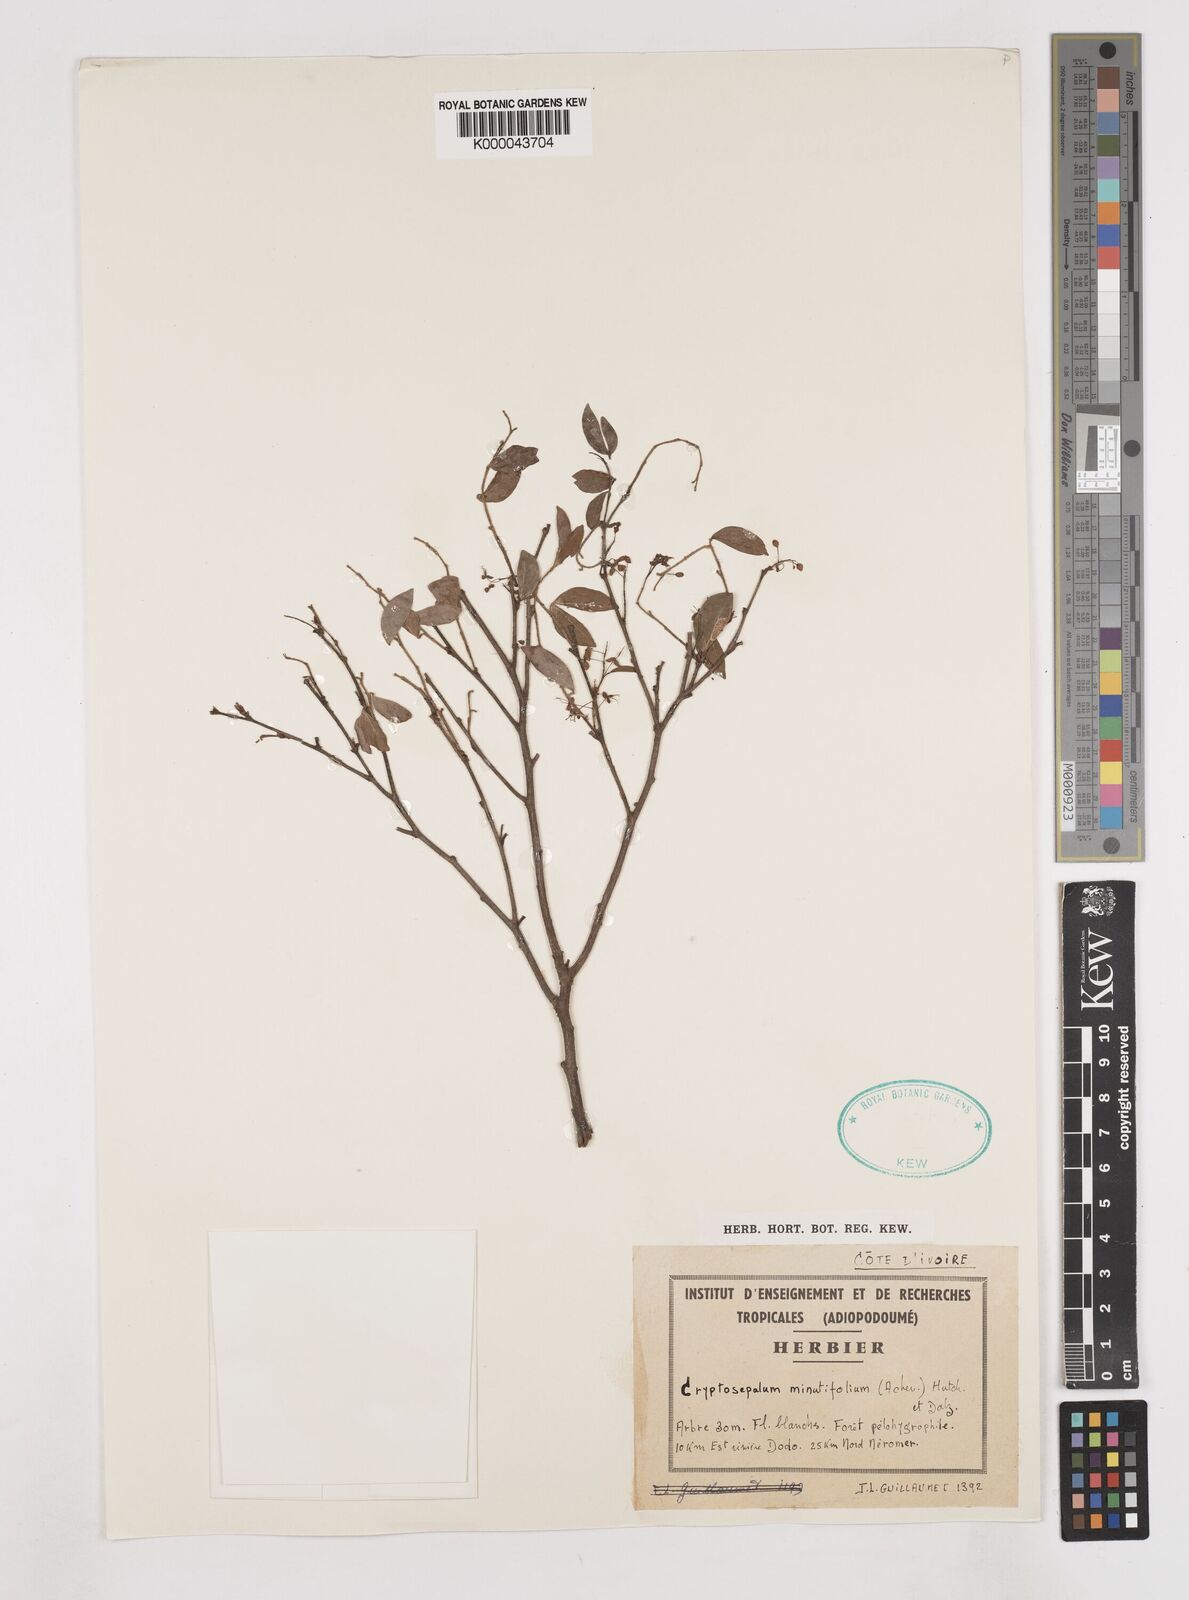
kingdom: Plantae
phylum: Tracheophyta
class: Magnoliopsida
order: Fabales
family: Fabaceae
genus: Cryptosepalum
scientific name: Cryptosepalum minutifolium
